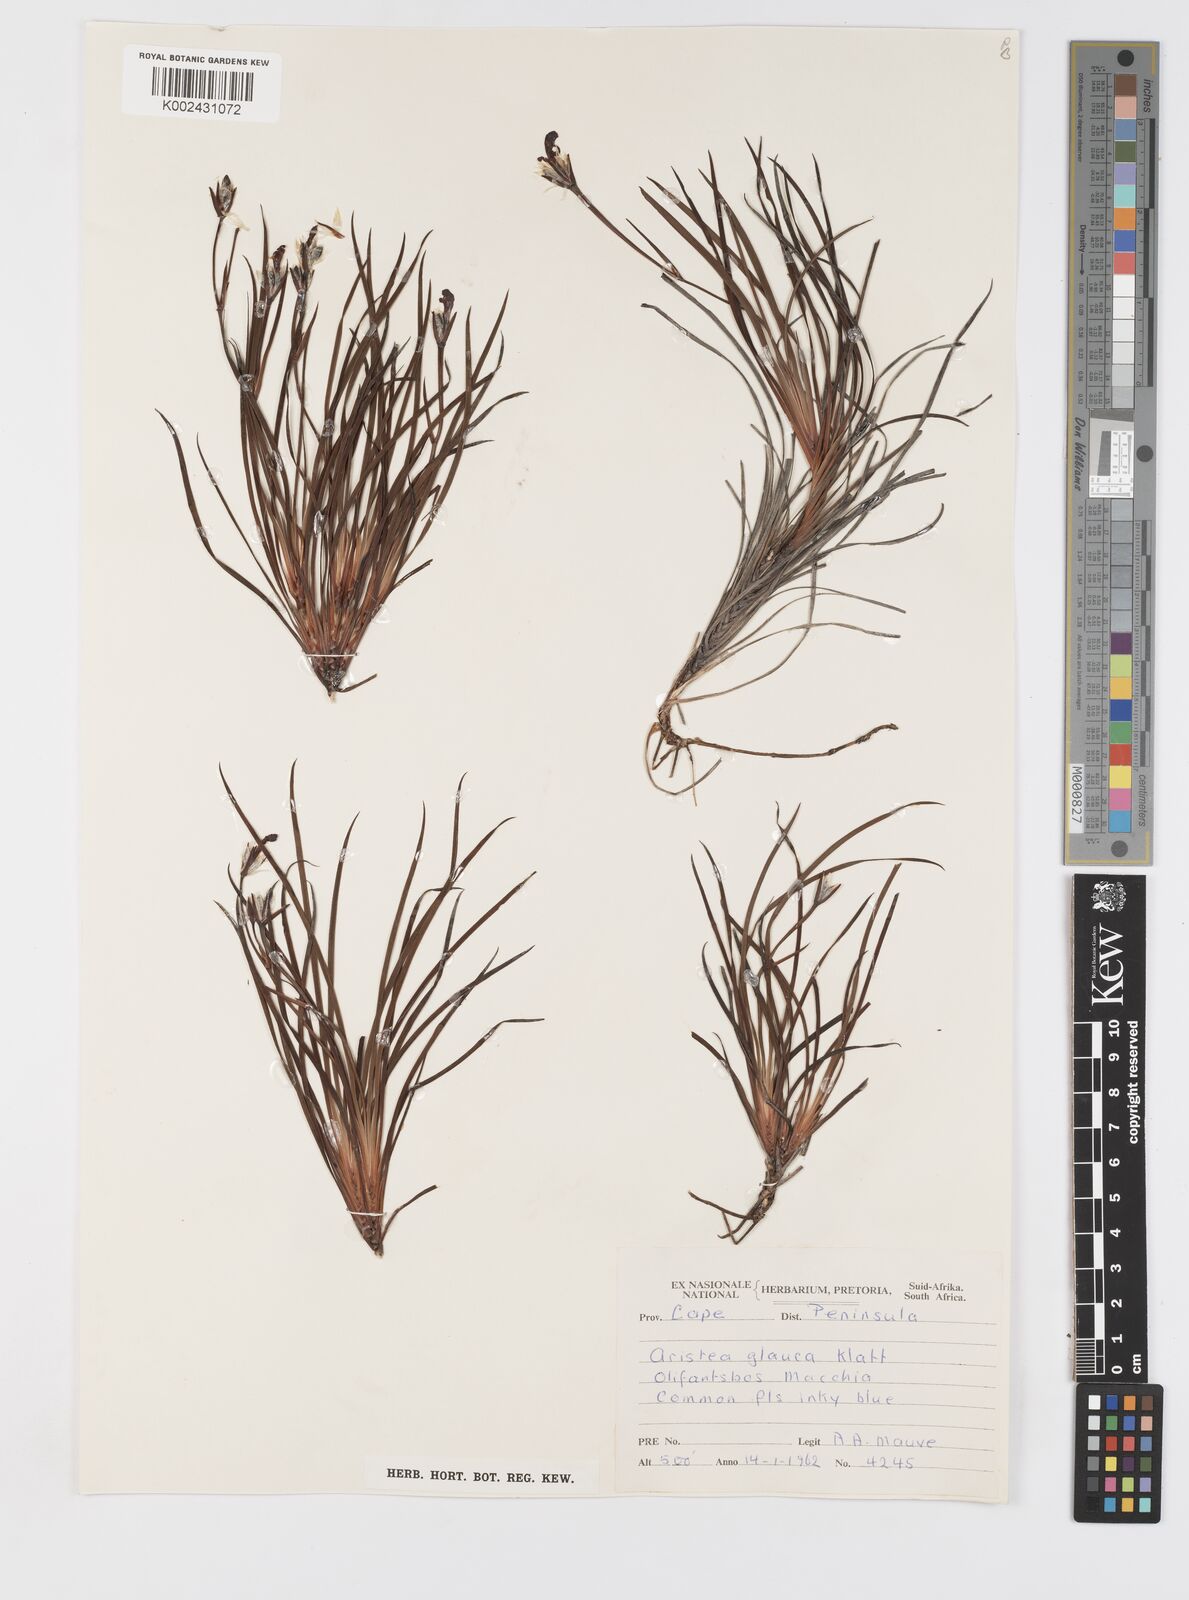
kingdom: Plantae
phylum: Tracheophyta
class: Liliopsida
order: Asparagales
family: Iridaceae
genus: Aristea
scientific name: Aristea glauca
